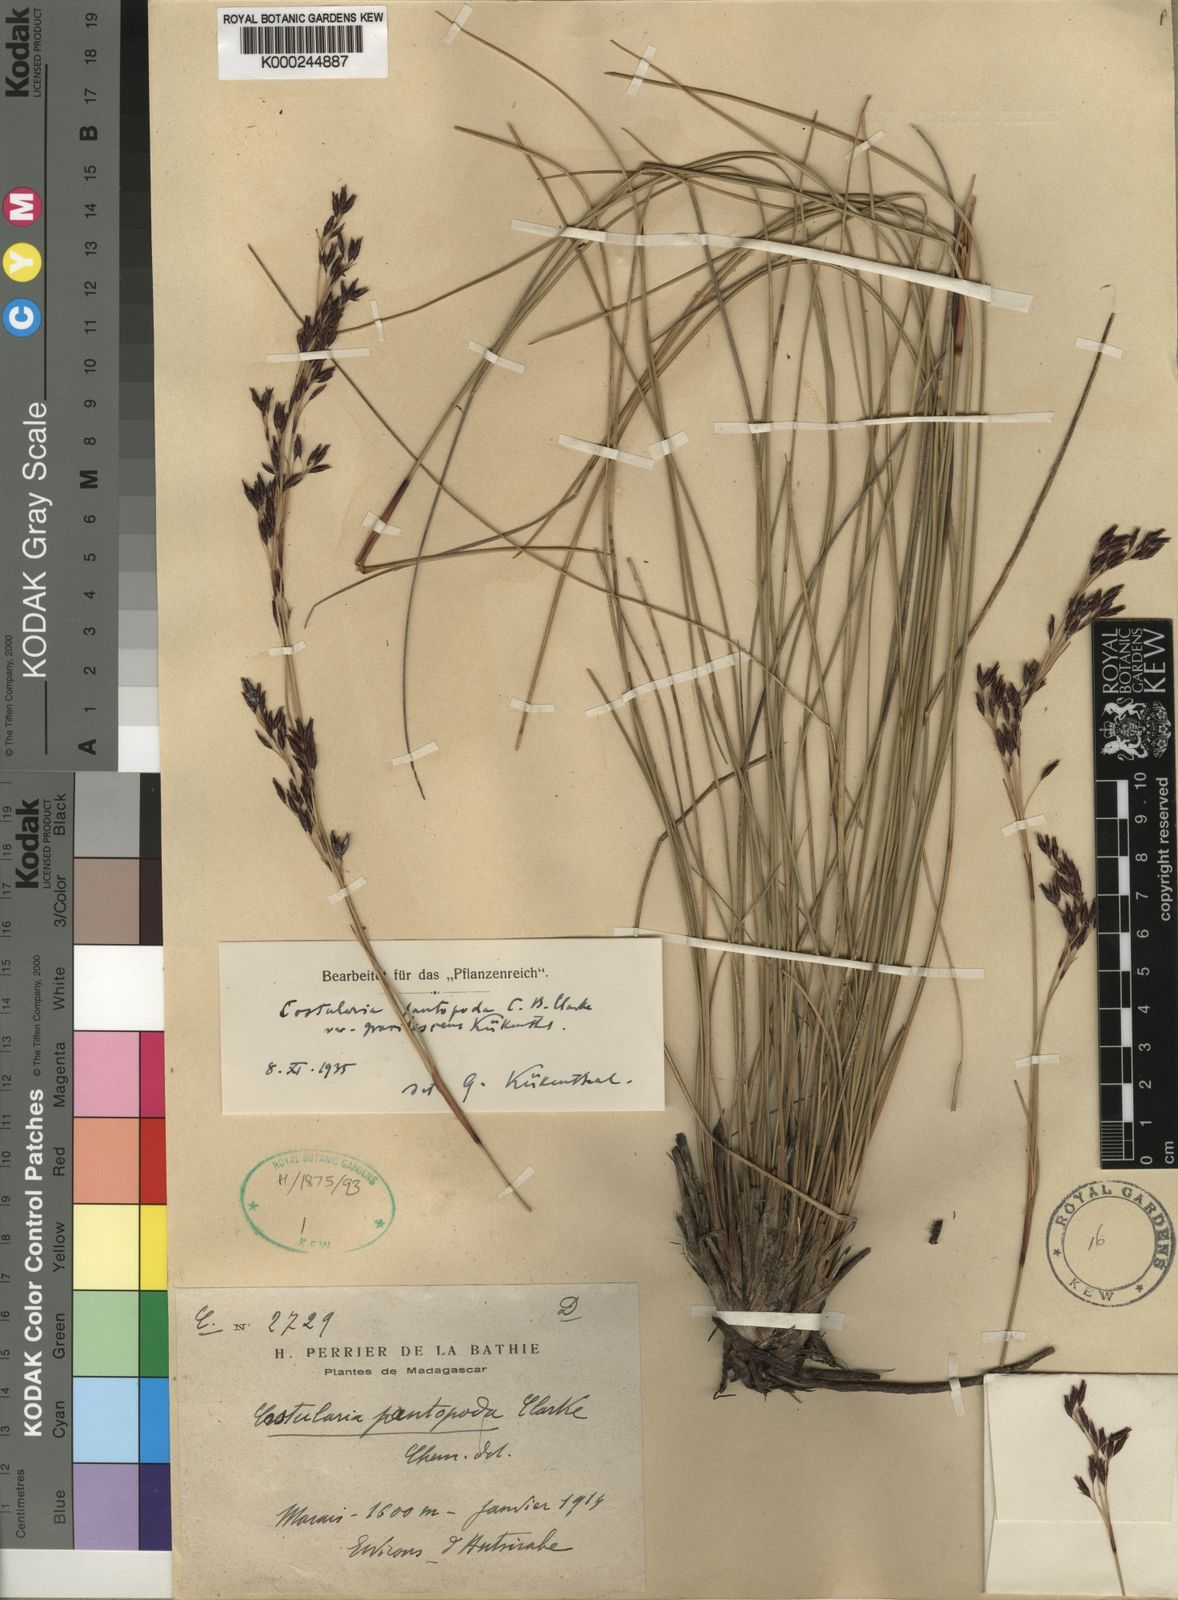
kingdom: Plantae
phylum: Tracheophyta
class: Liliopsida
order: Poales
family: Cyperaceae
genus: Costularia
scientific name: Costularia
